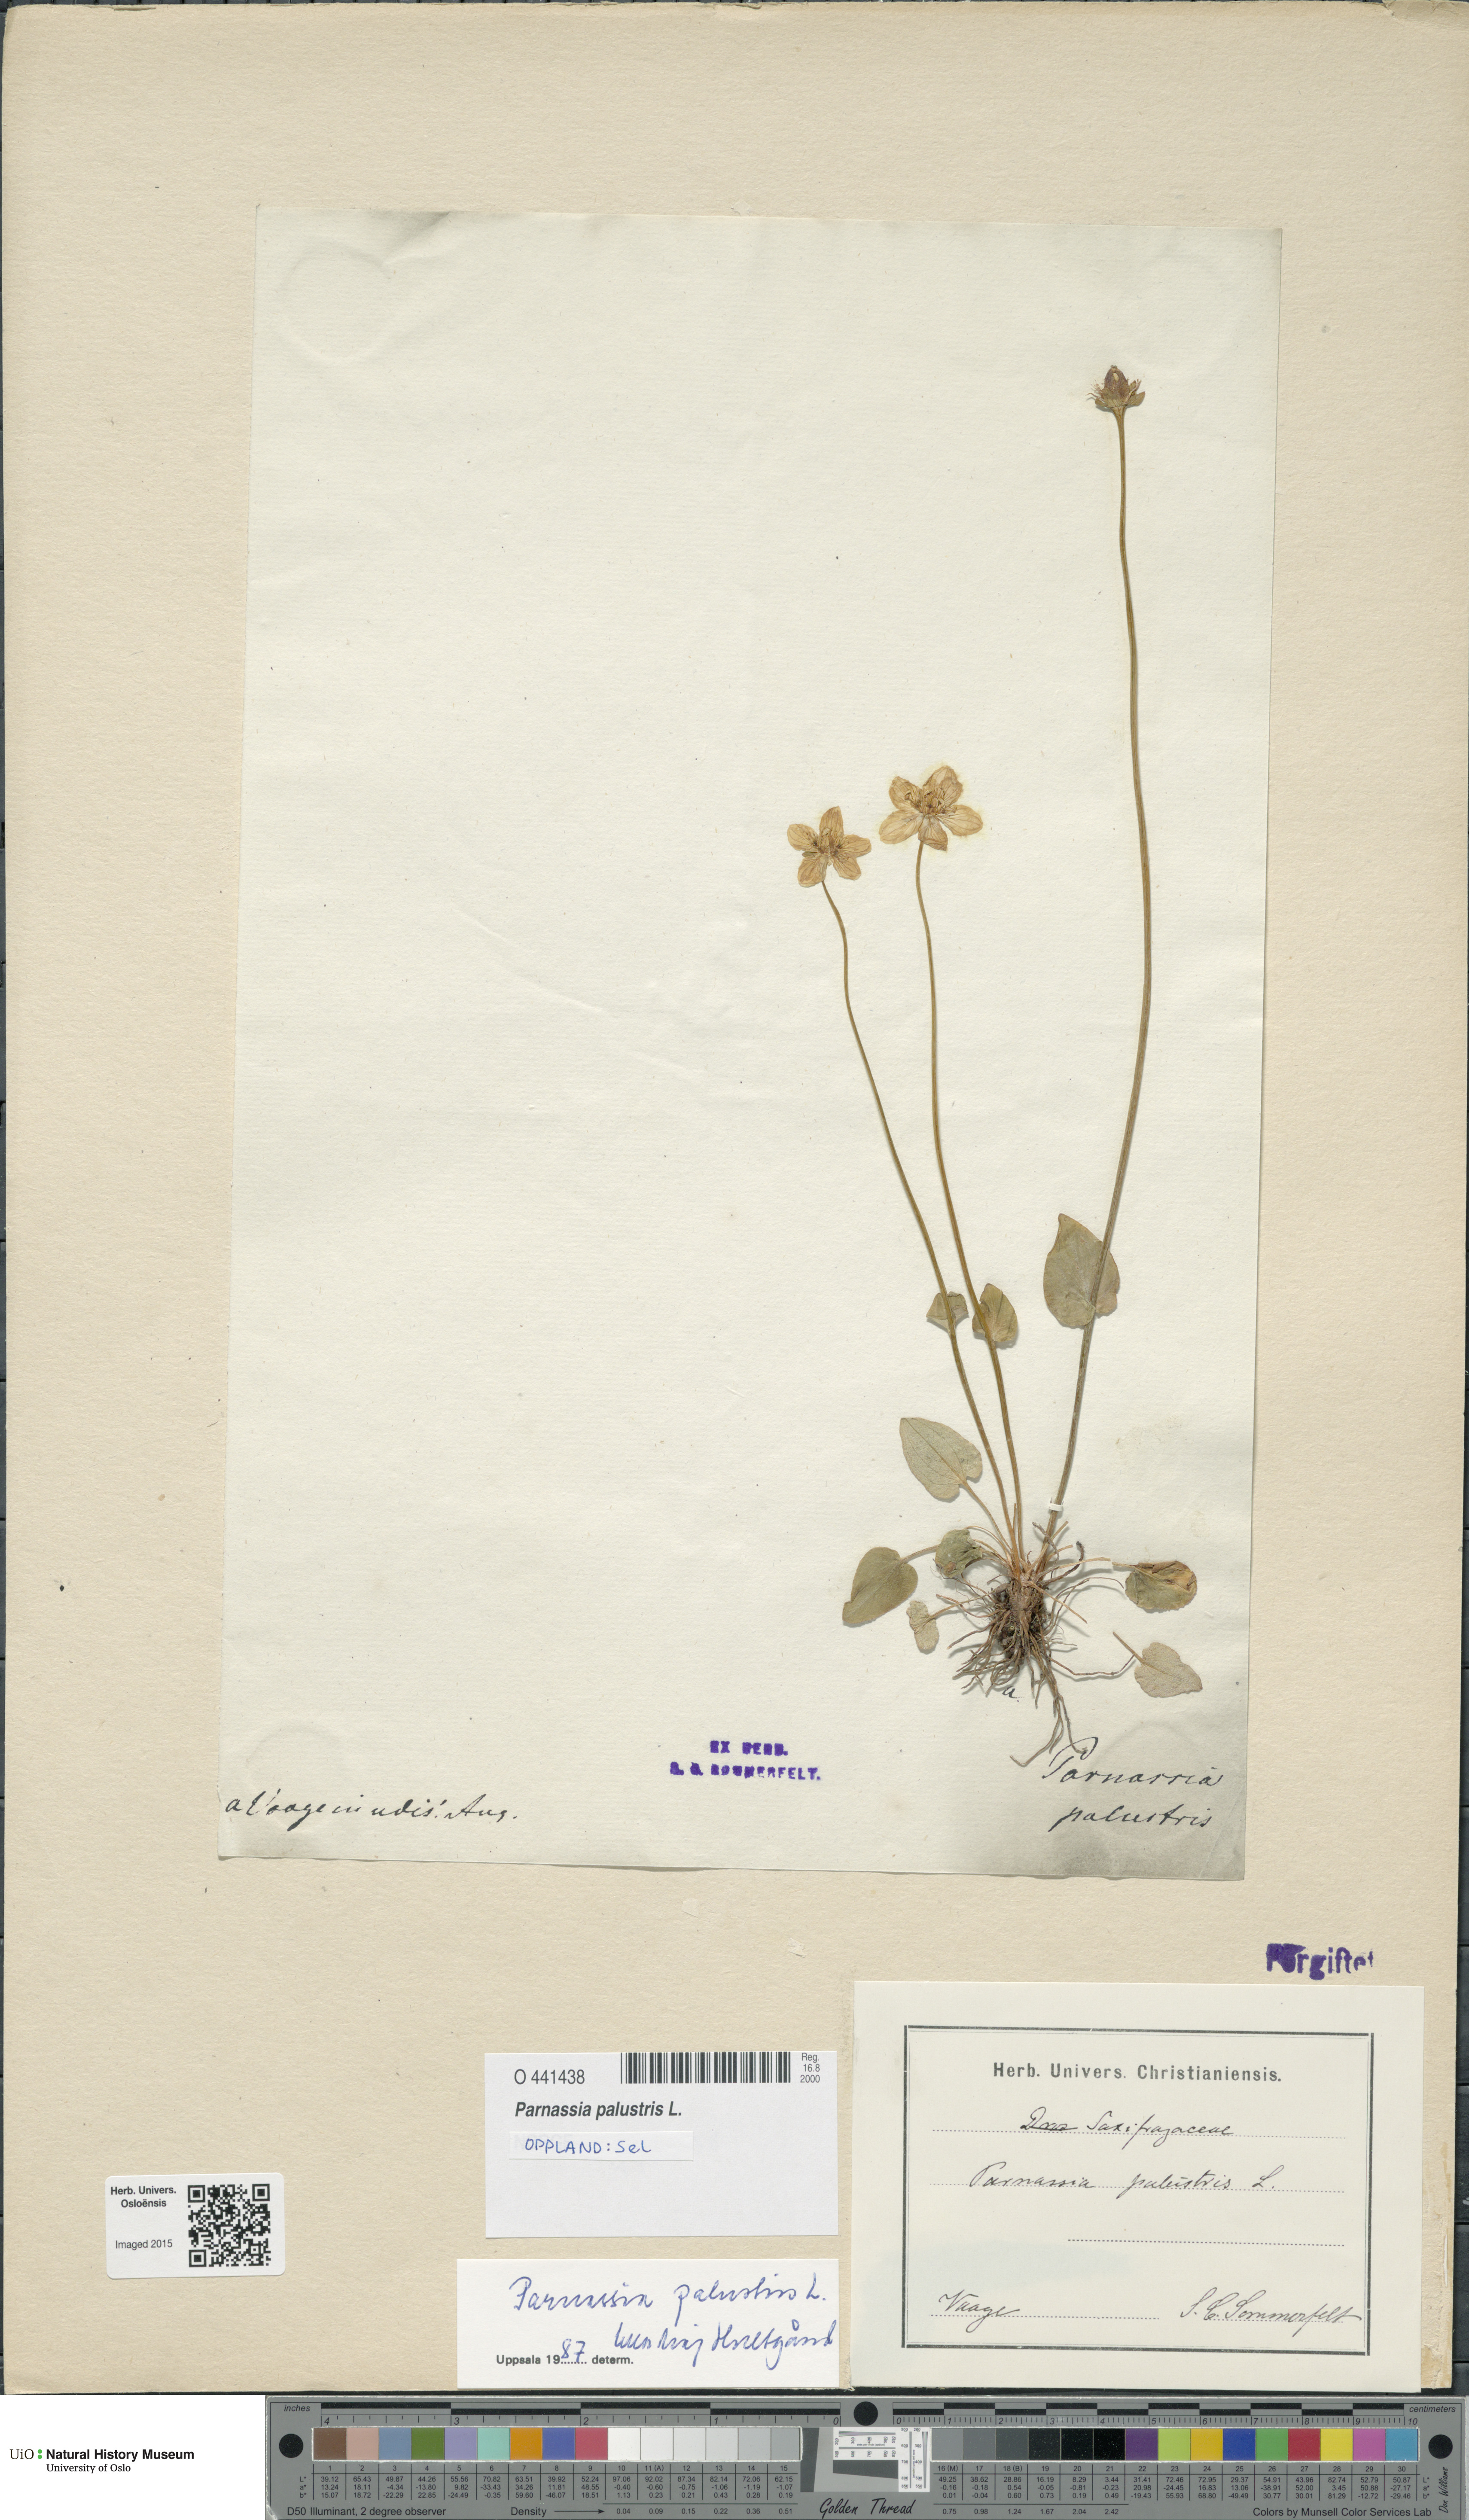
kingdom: Plantae
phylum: Tracheophyta
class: Magnoliopsida
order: Celastrales
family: Parnassiaceae
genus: Parnassia
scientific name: Parnassia palustris
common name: Grass-of-parnassus
